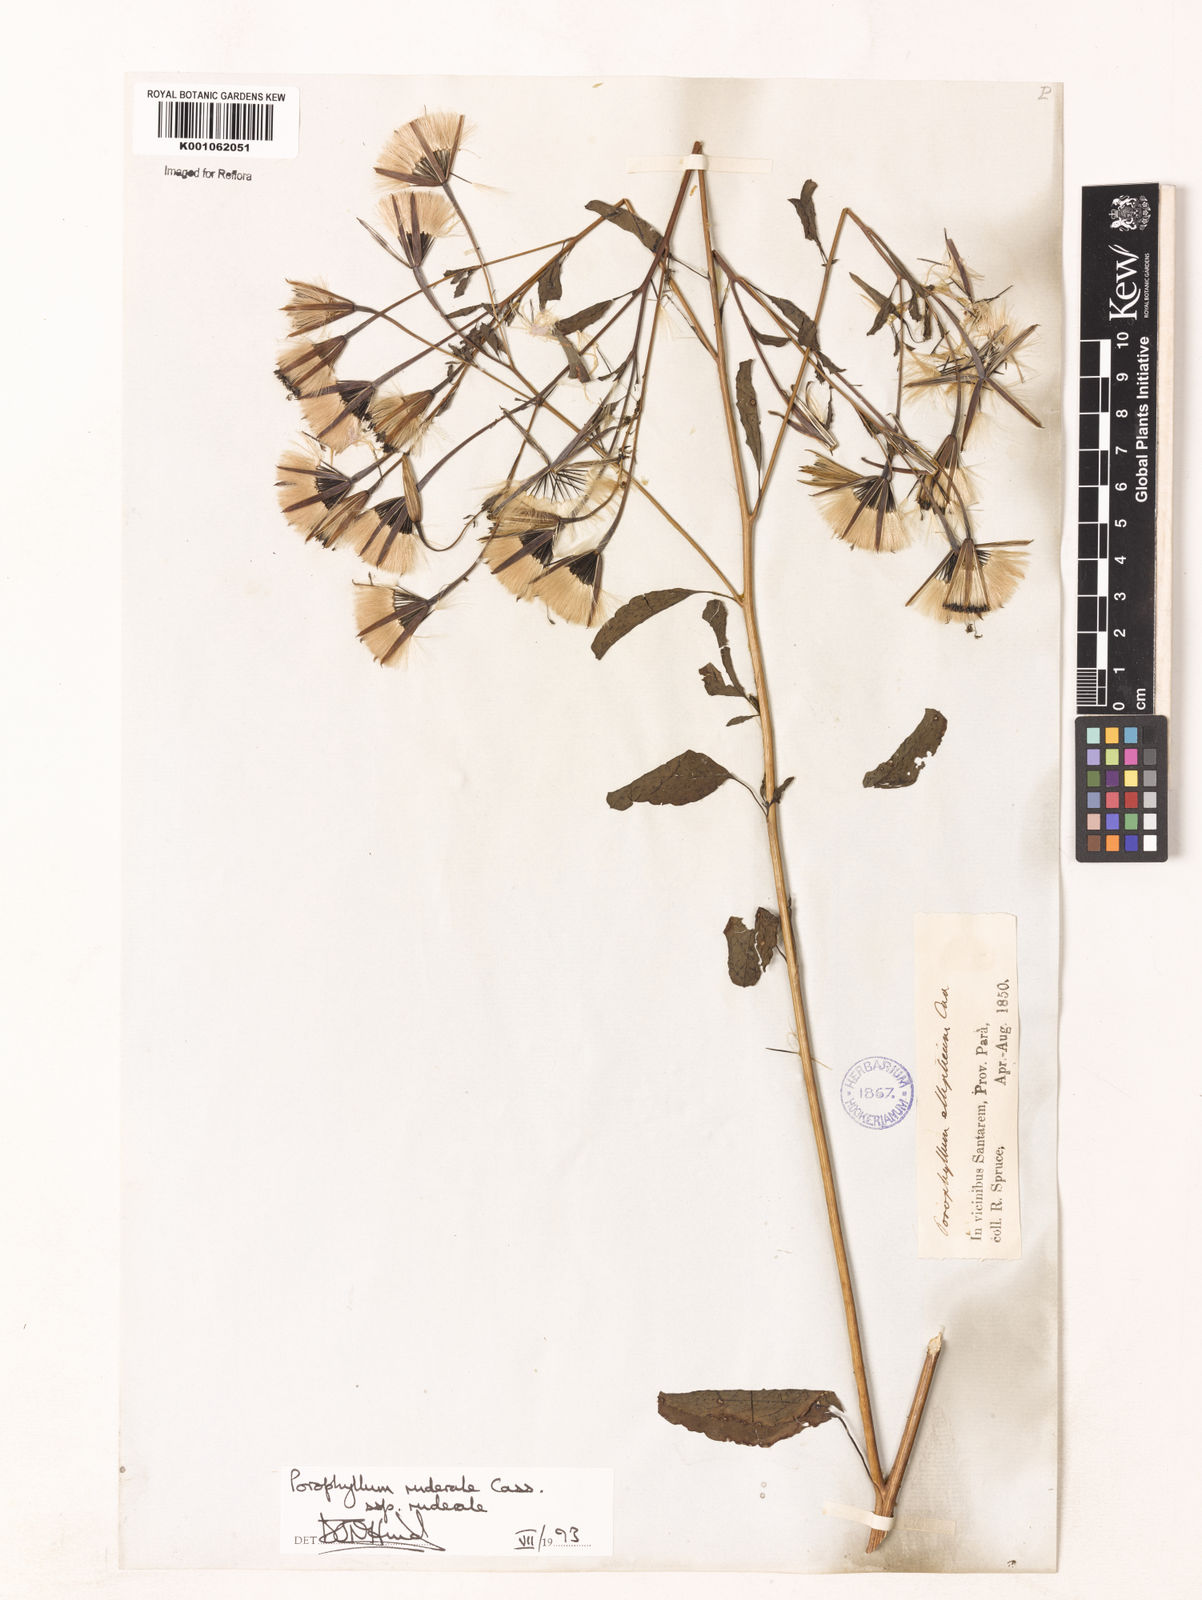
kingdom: Plantae
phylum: Tracheophyta
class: Magnoliopsida
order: Asterales
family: Asteraceae
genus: Porophyllum
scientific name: Porophyllum ruderale
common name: Yerba porosa
